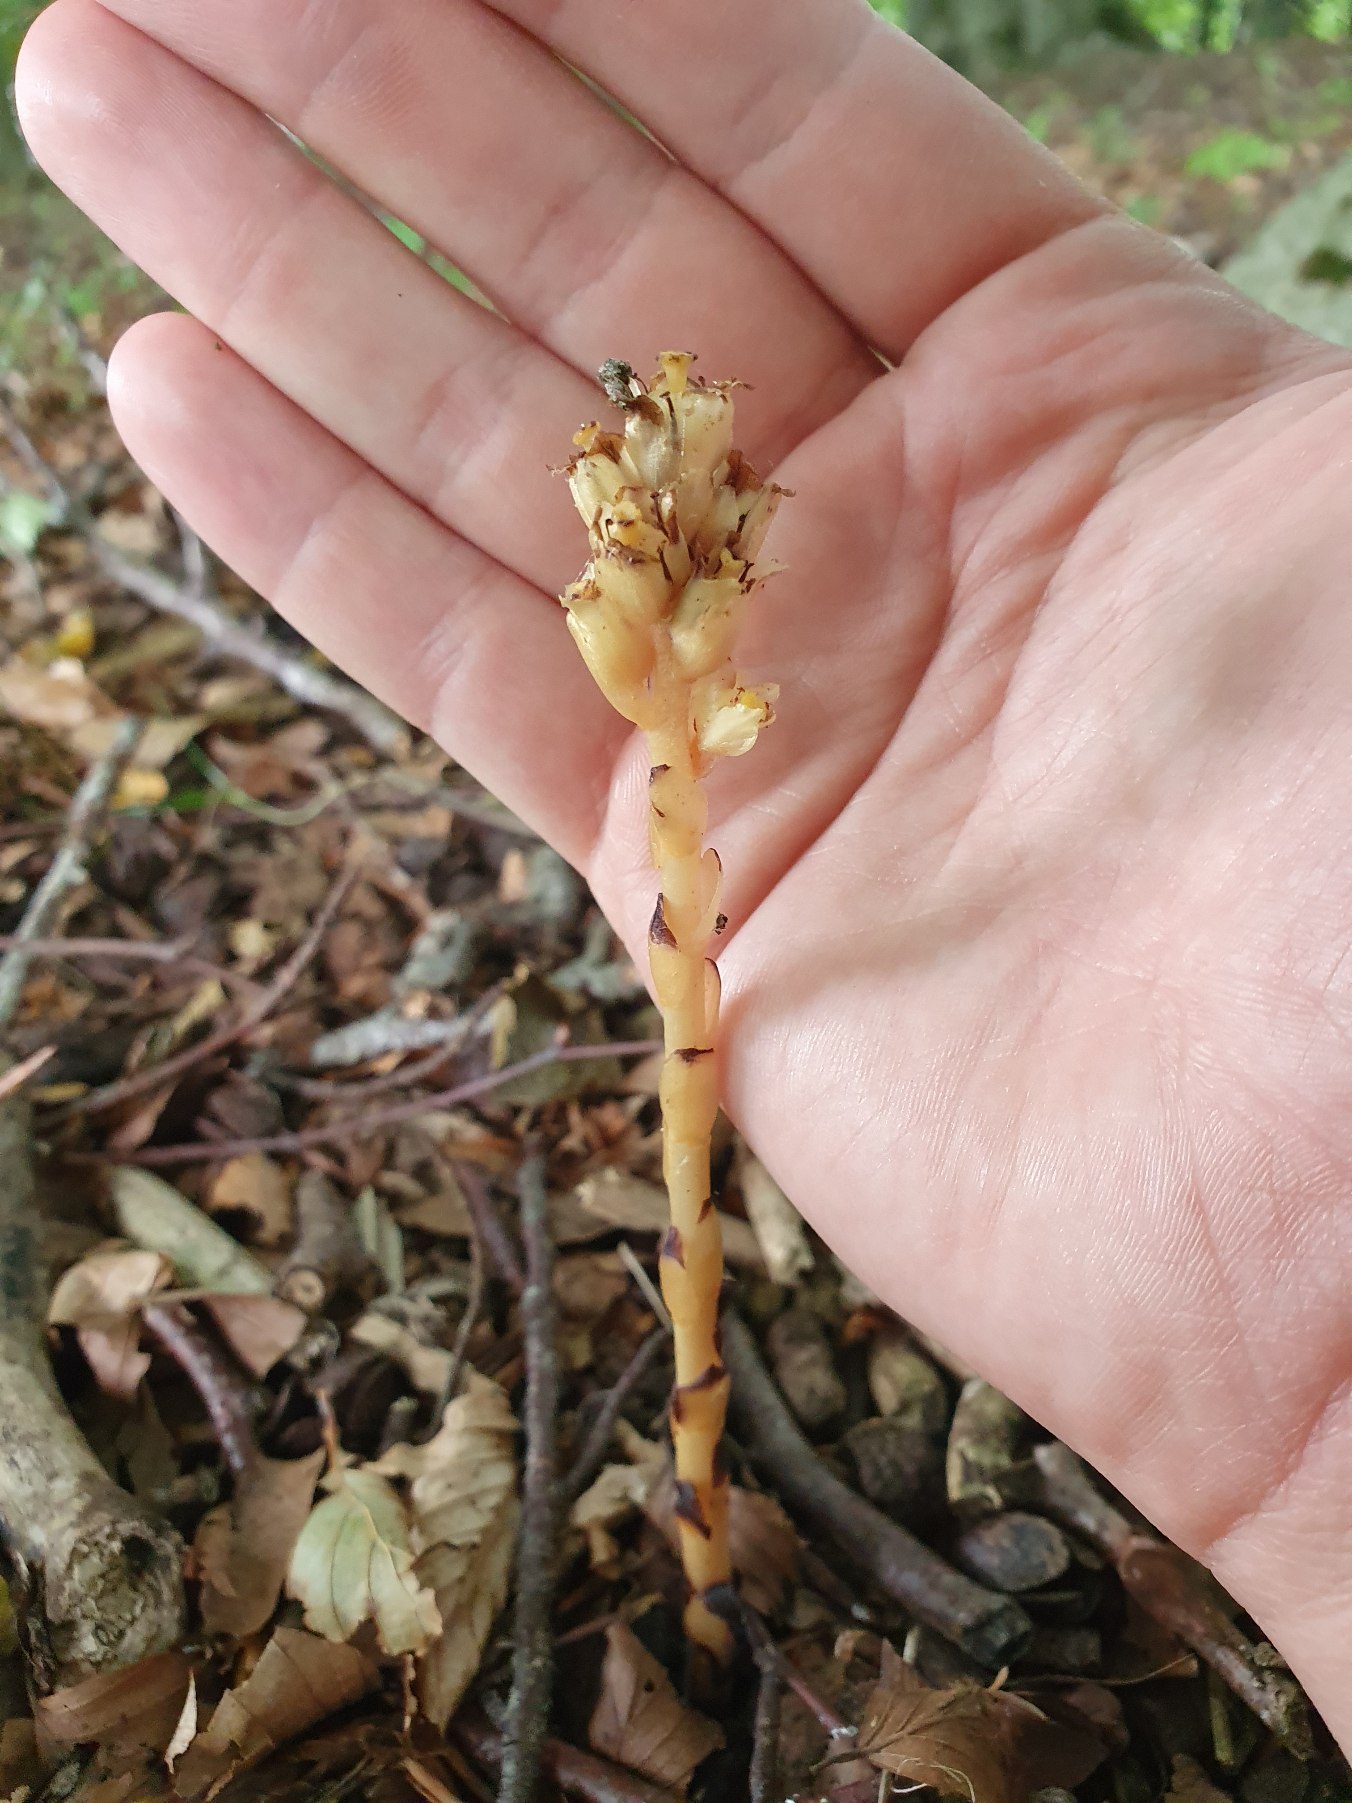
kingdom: Plantae
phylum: Tracheophyta
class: Magnoliopsida
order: Ericales
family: Ericaceae
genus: Hypopitys
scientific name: Hypopitys monotropa
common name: Snylterod
